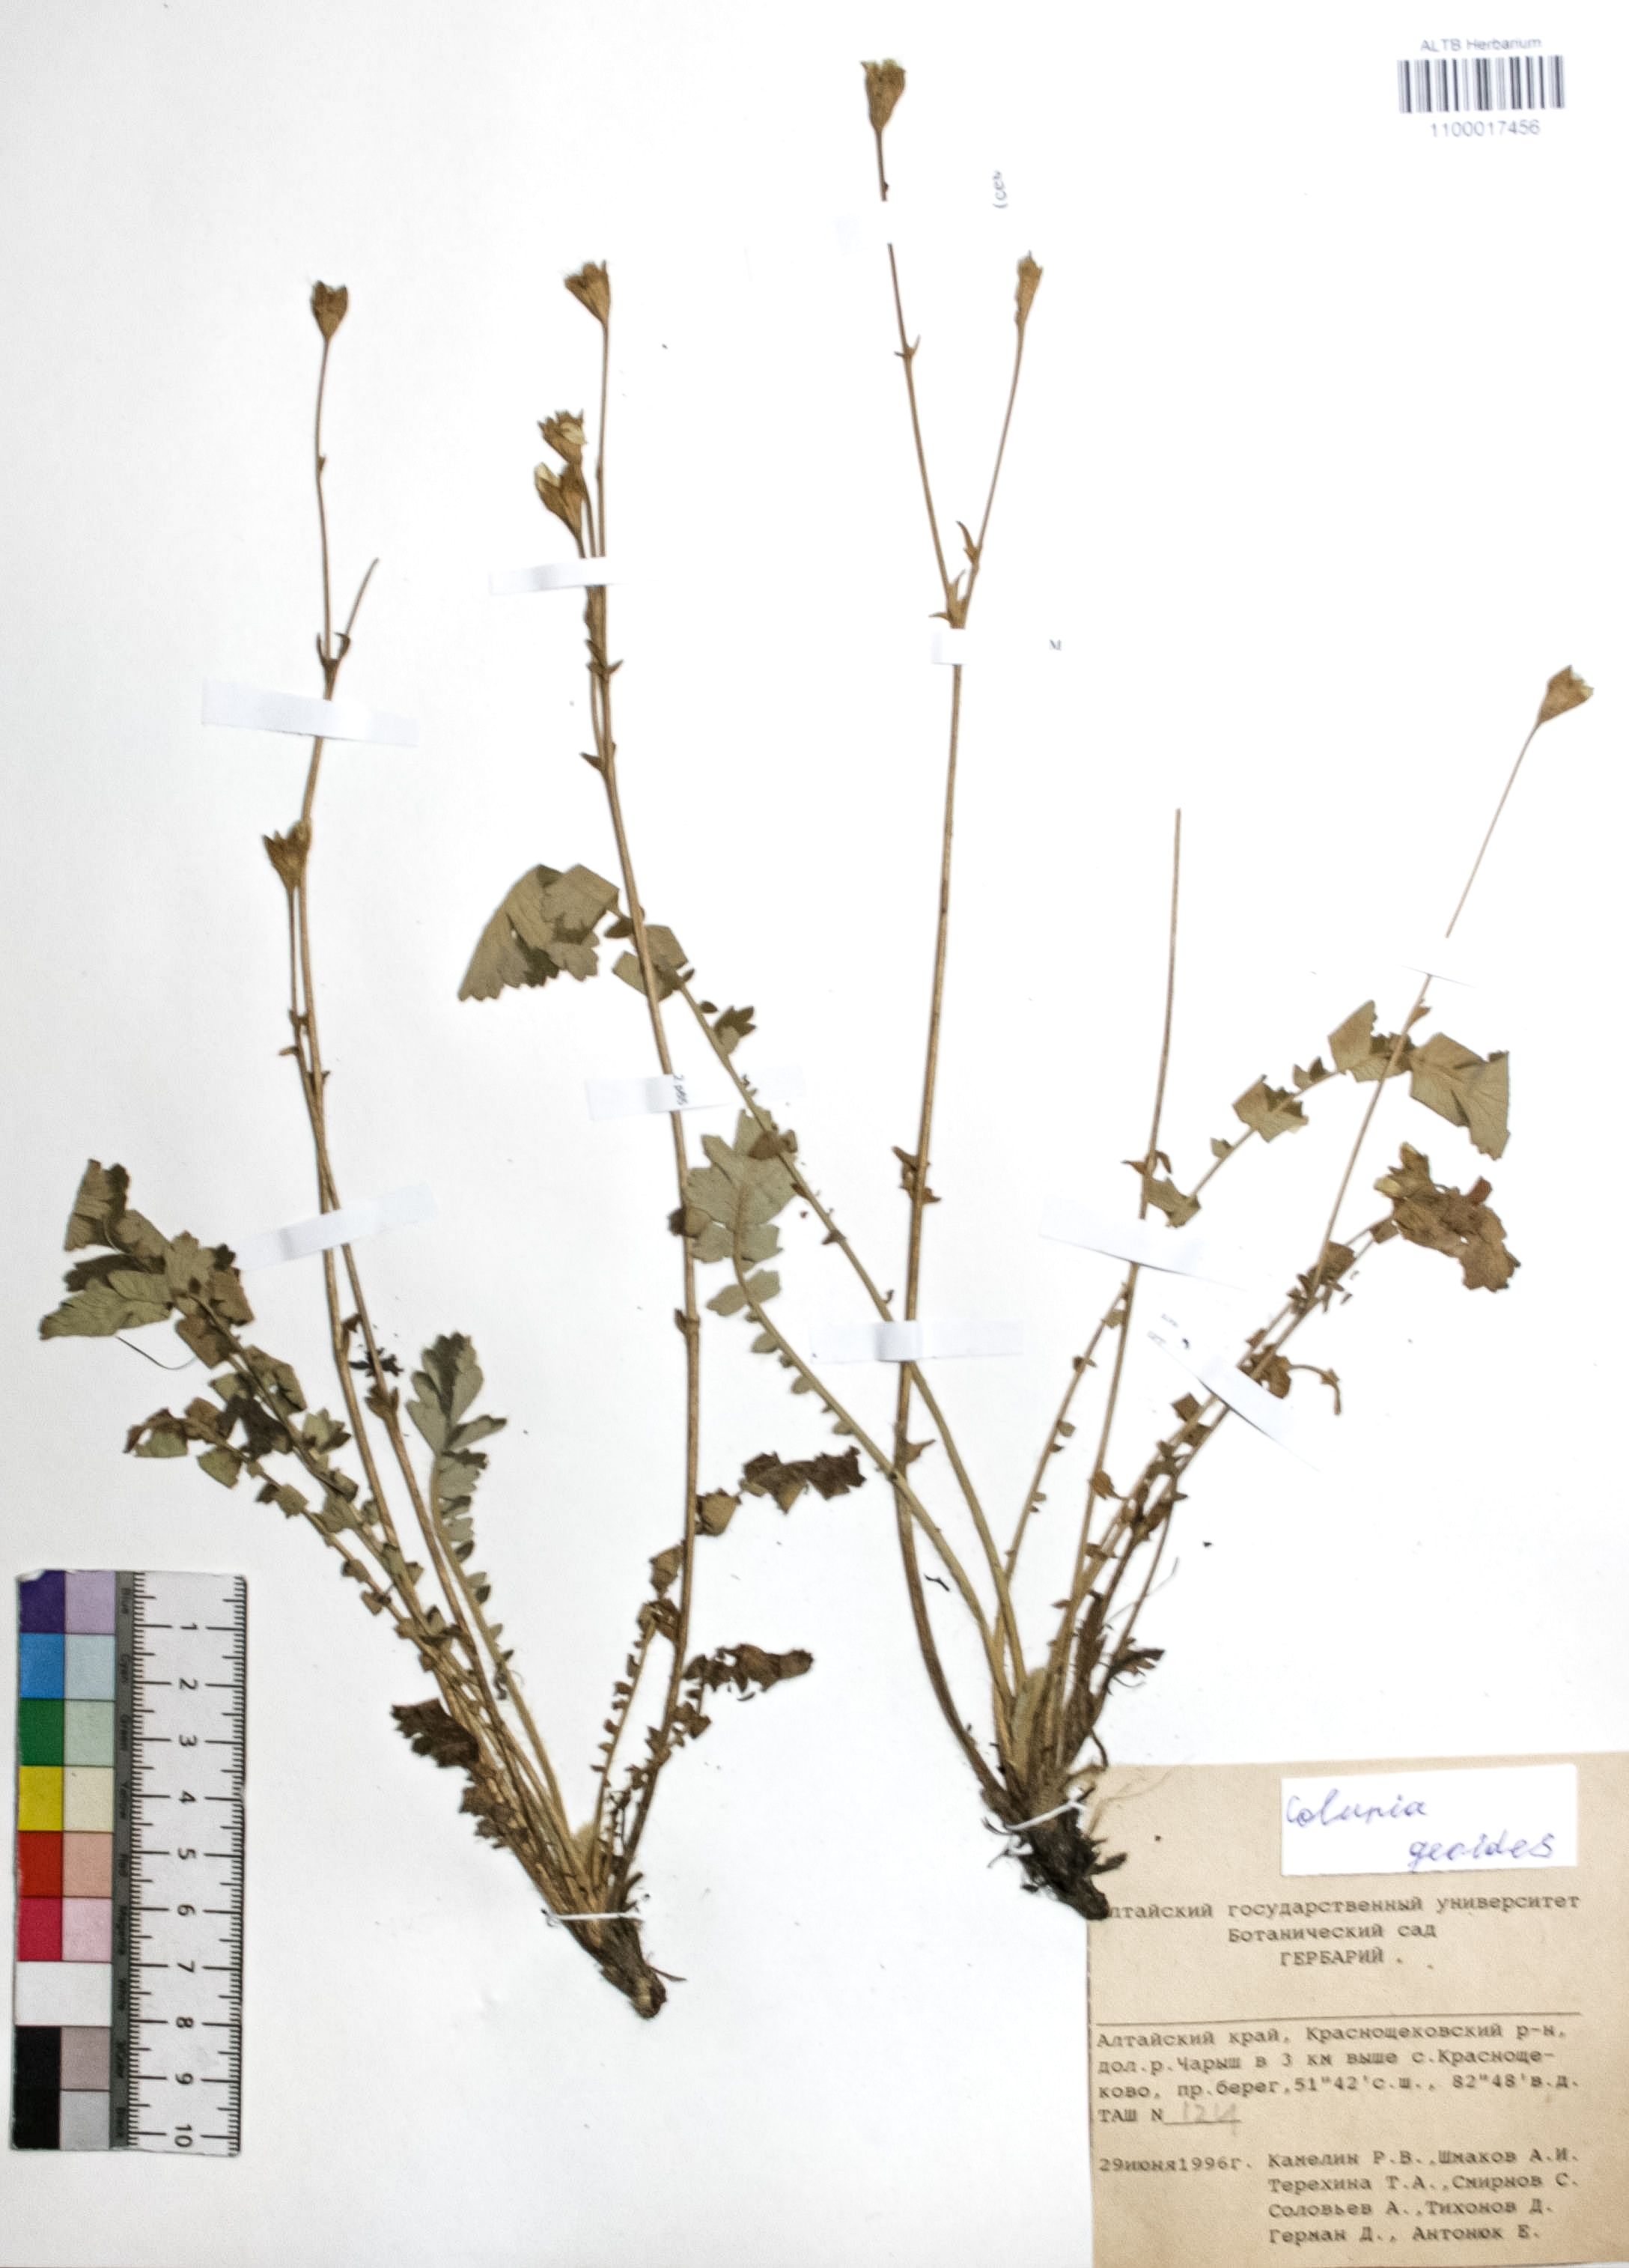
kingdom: Plantae
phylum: Tracheophyta
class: Magnoliopsida
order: Rosales
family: Rosaceae
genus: Geum
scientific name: Geum geoides
